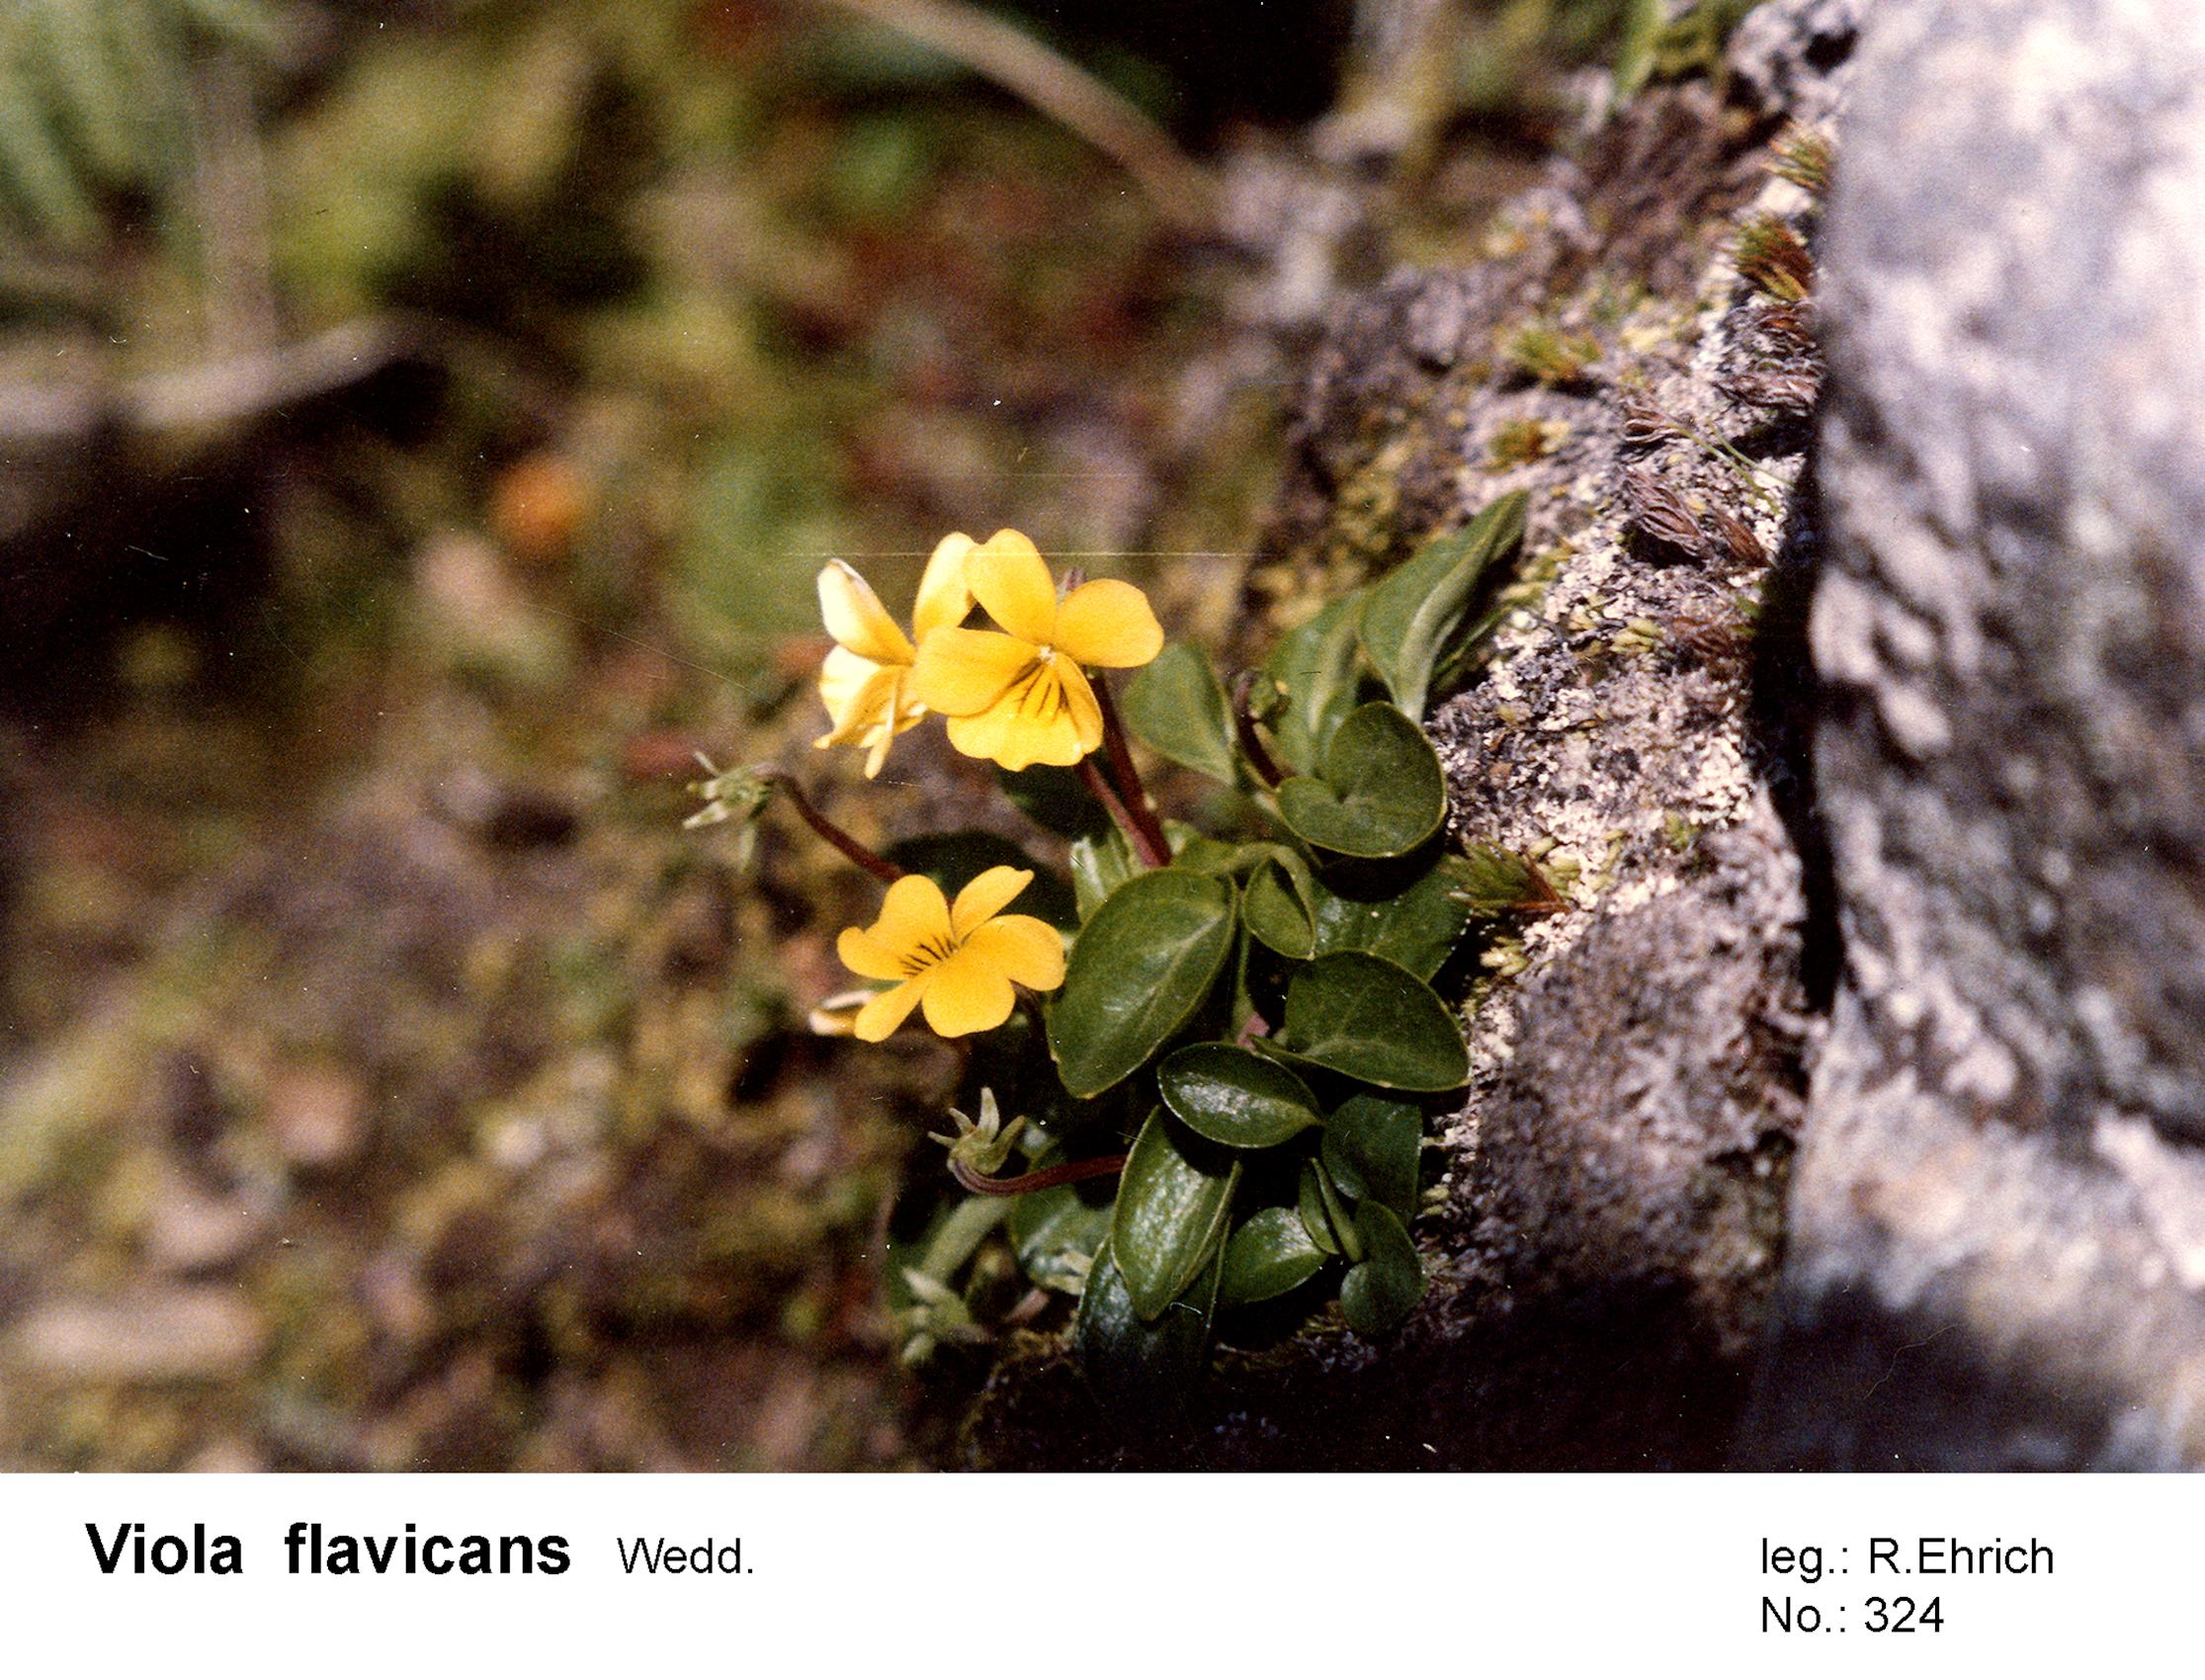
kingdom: Plantae
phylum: Tracheophyta
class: Magnoliopsida
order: Malpighiales
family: Violaceae
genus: Viola
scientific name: Viola flavicans
